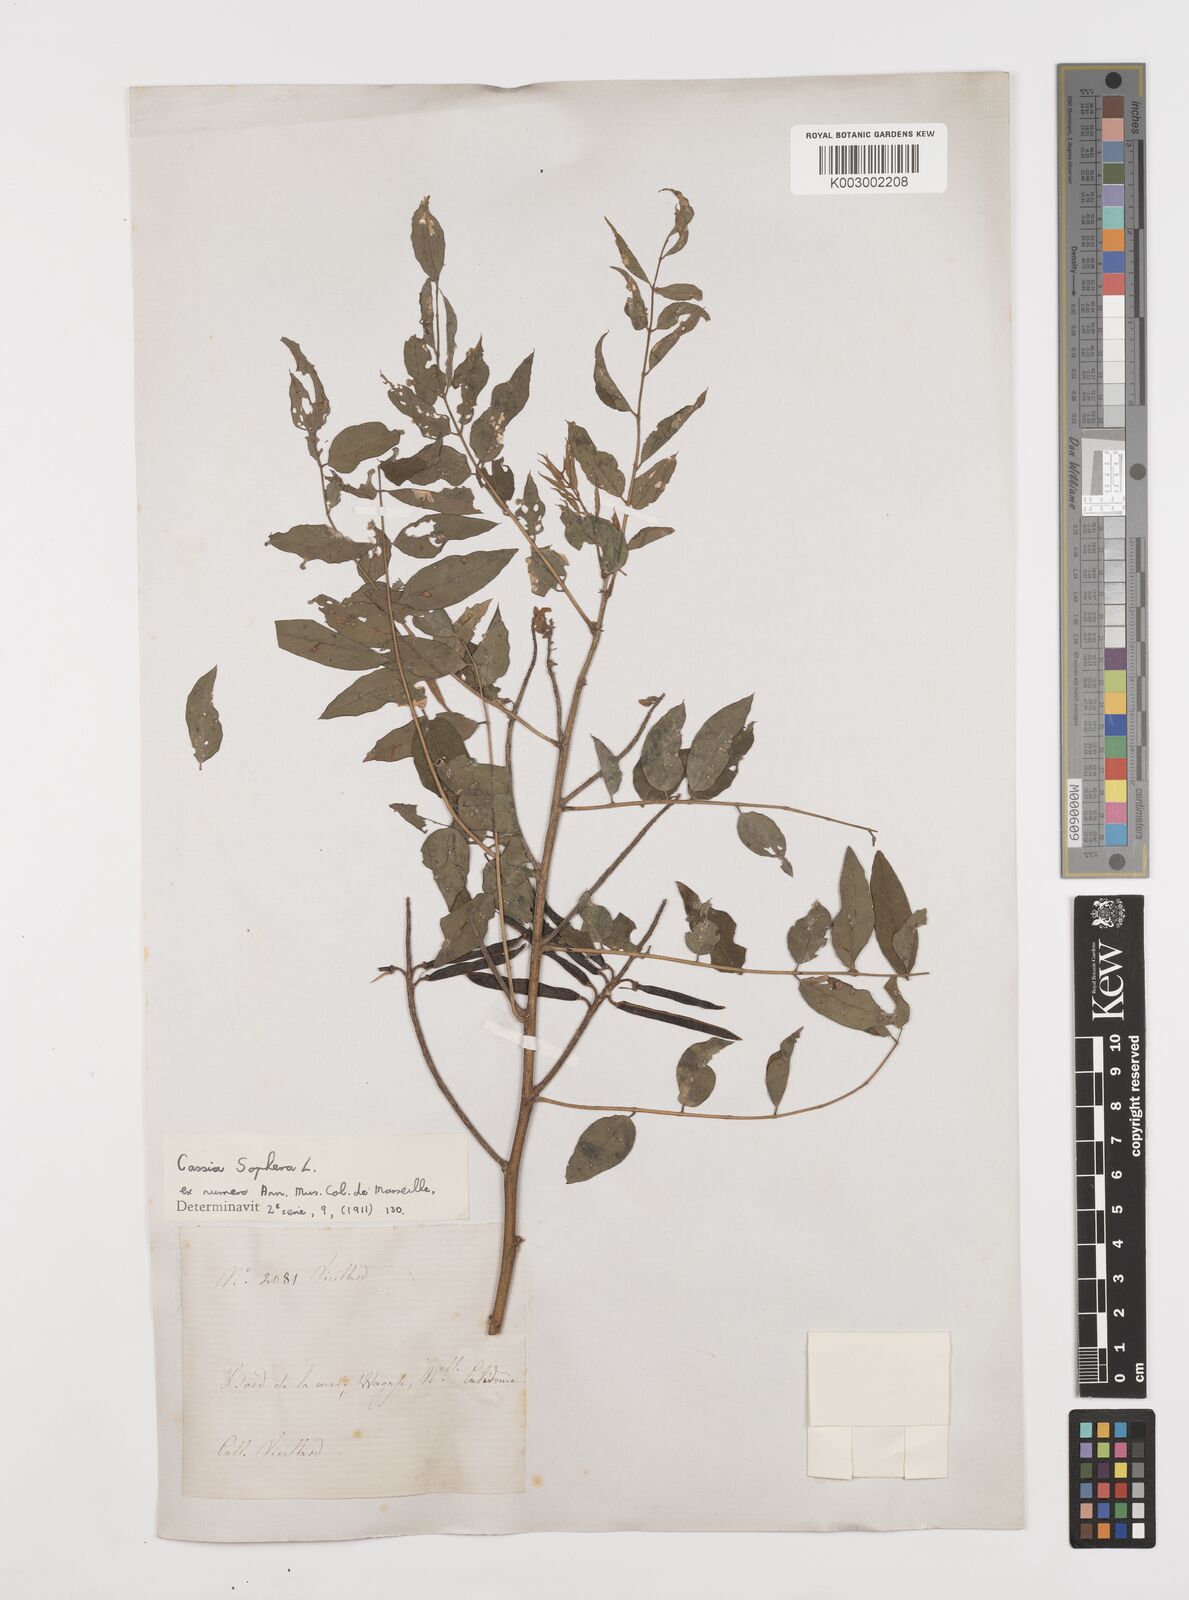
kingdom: Plantae
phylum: Tracheophyta
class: Magnoliopsida
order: Fabales
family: Fabaceae
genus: Senna
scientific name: Senna sophera
